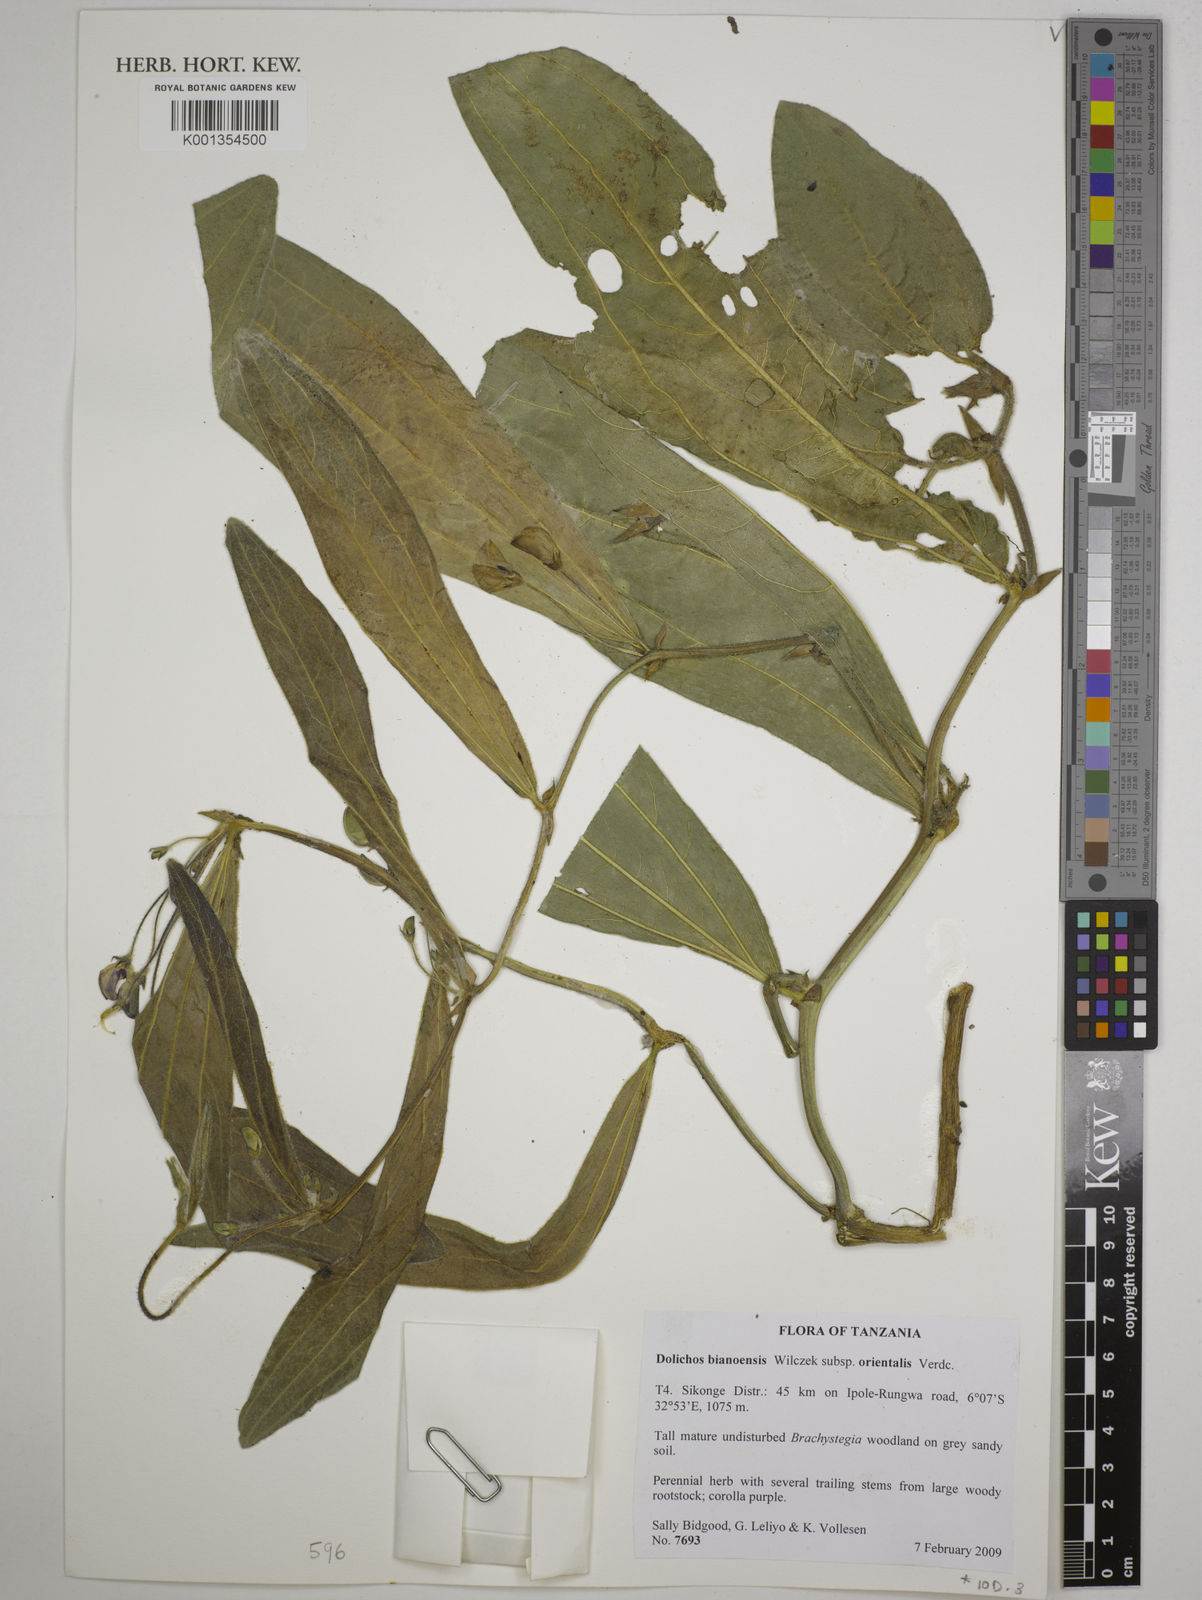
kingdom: Plantae
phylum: Tracheophyta
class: Magnoliopsida
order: Fabales
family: Fabaceae
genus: Dolichos
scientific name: Dolichos
